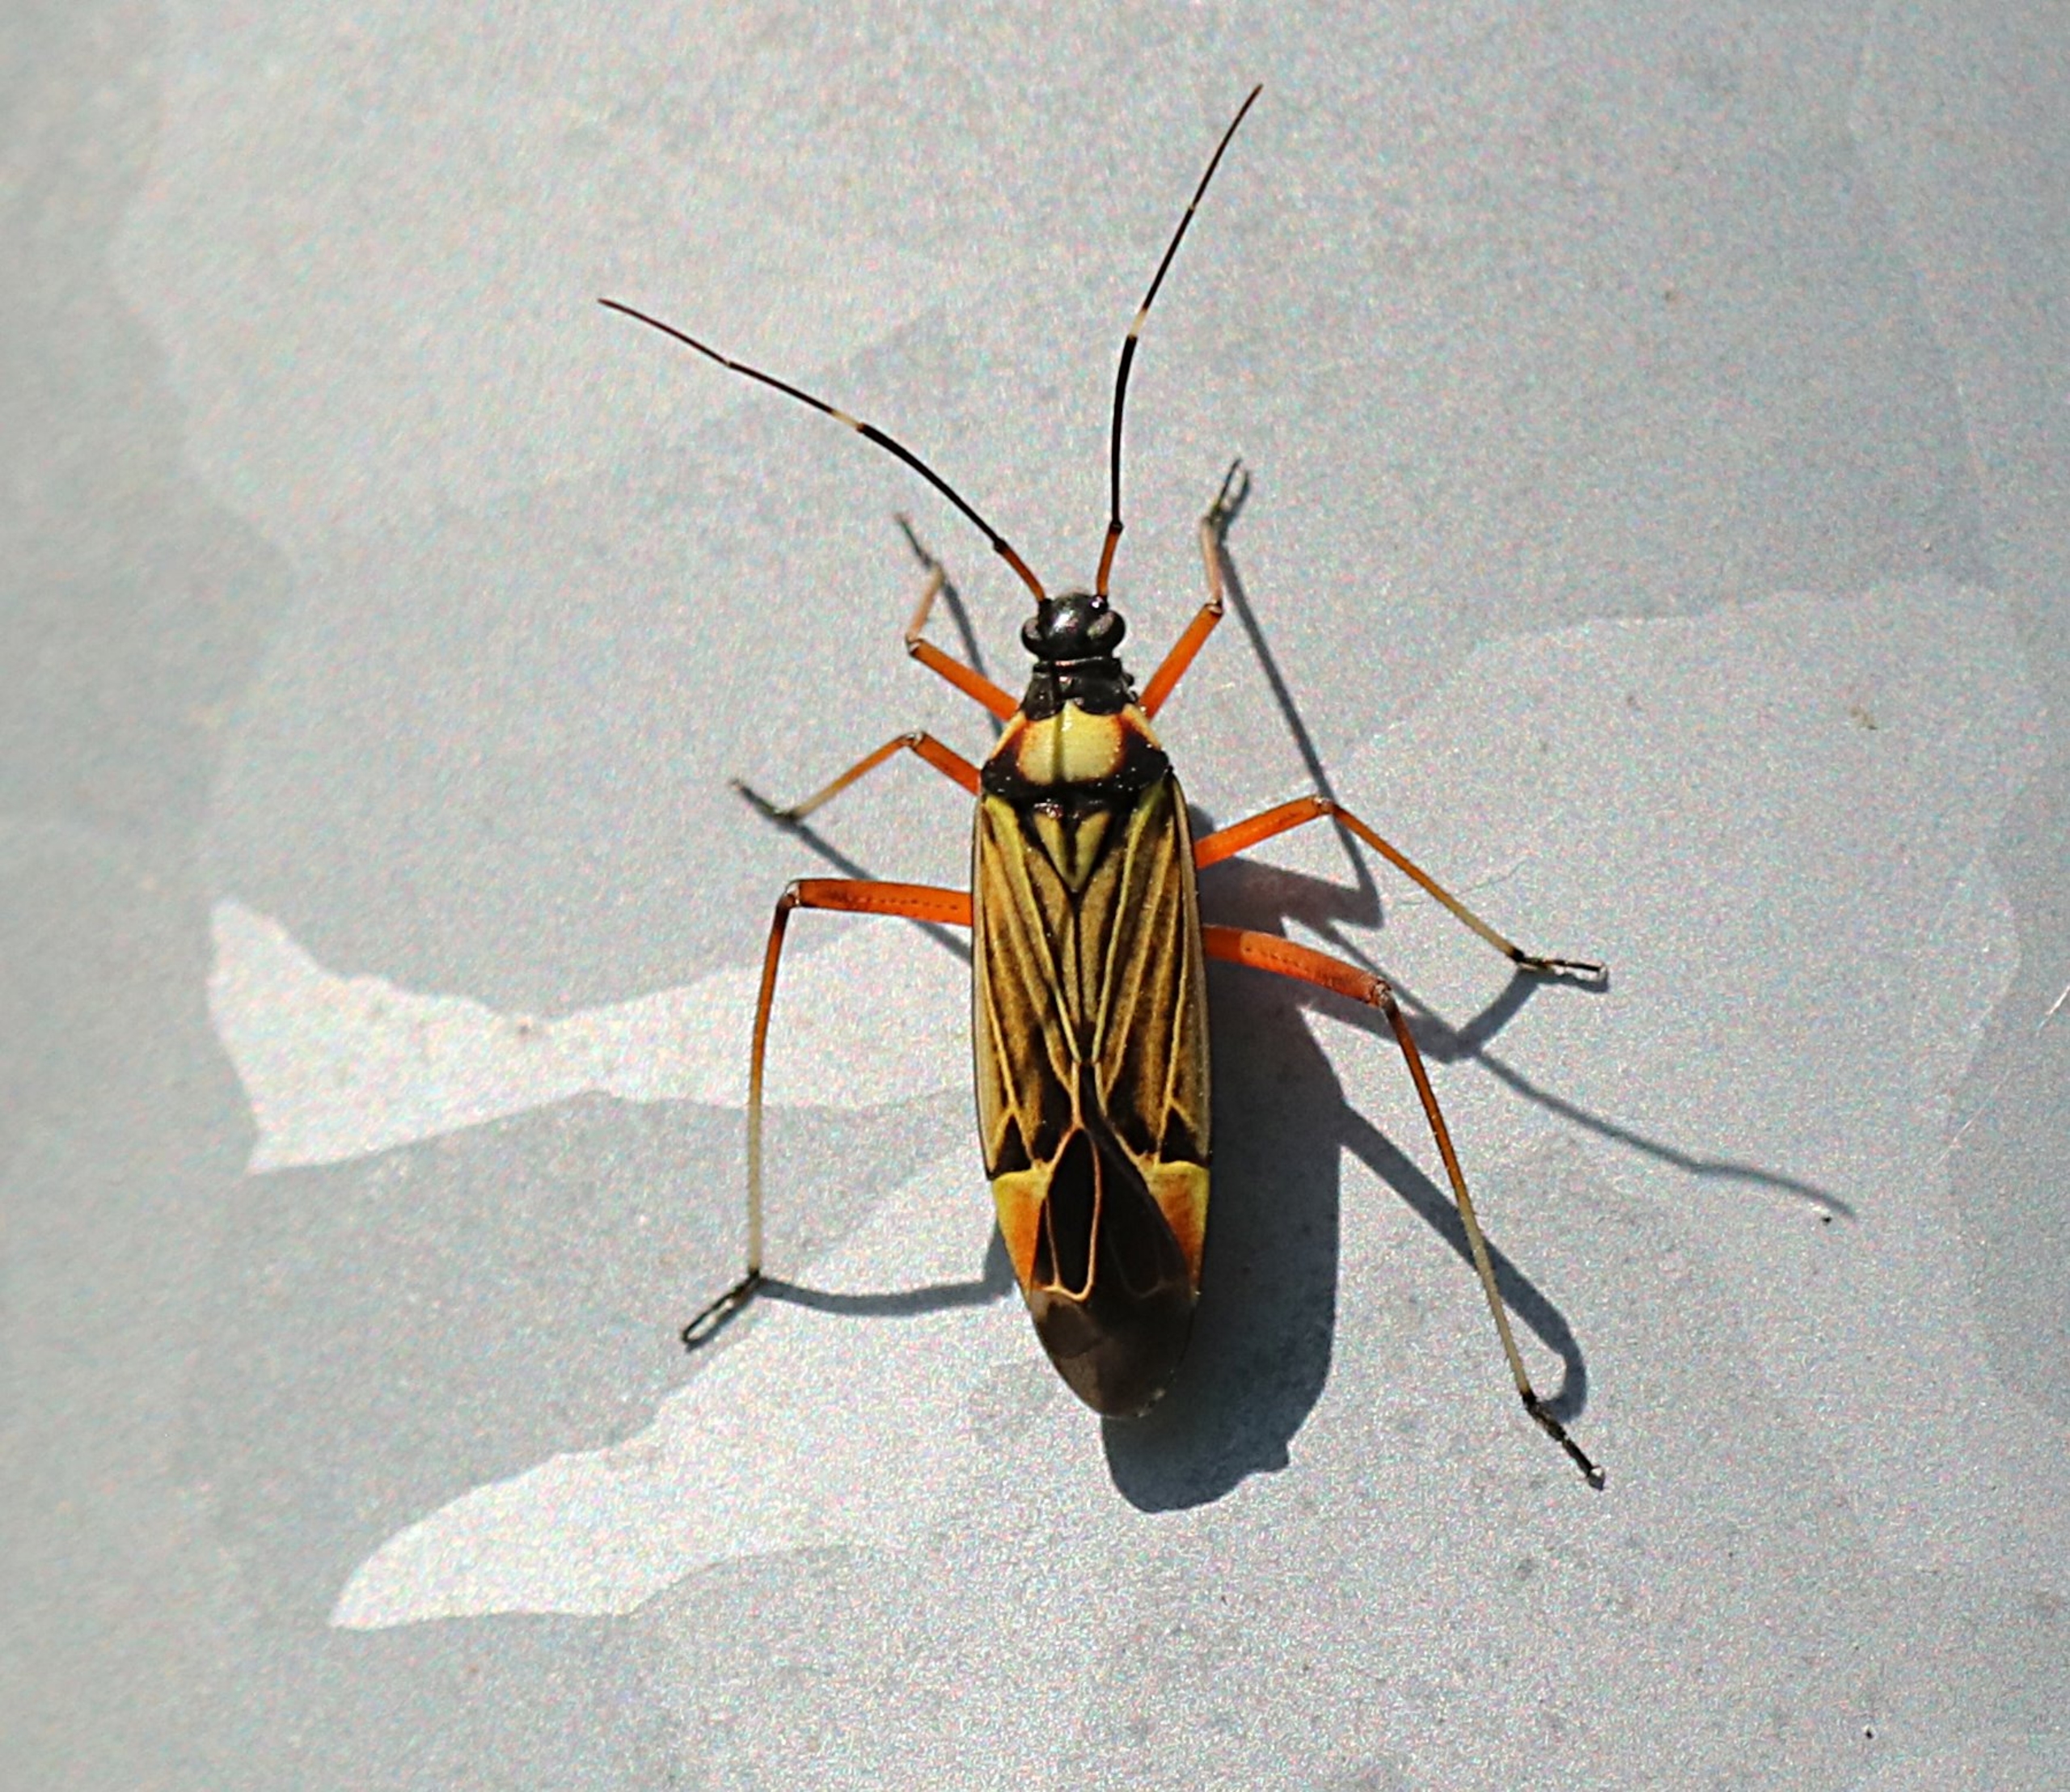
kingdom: Animalia
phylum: Arthropoda
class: Insecta
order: Hemiptera
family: Miridae
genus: Miris
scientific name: Miris striatus
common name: Gulstribet egetæge
